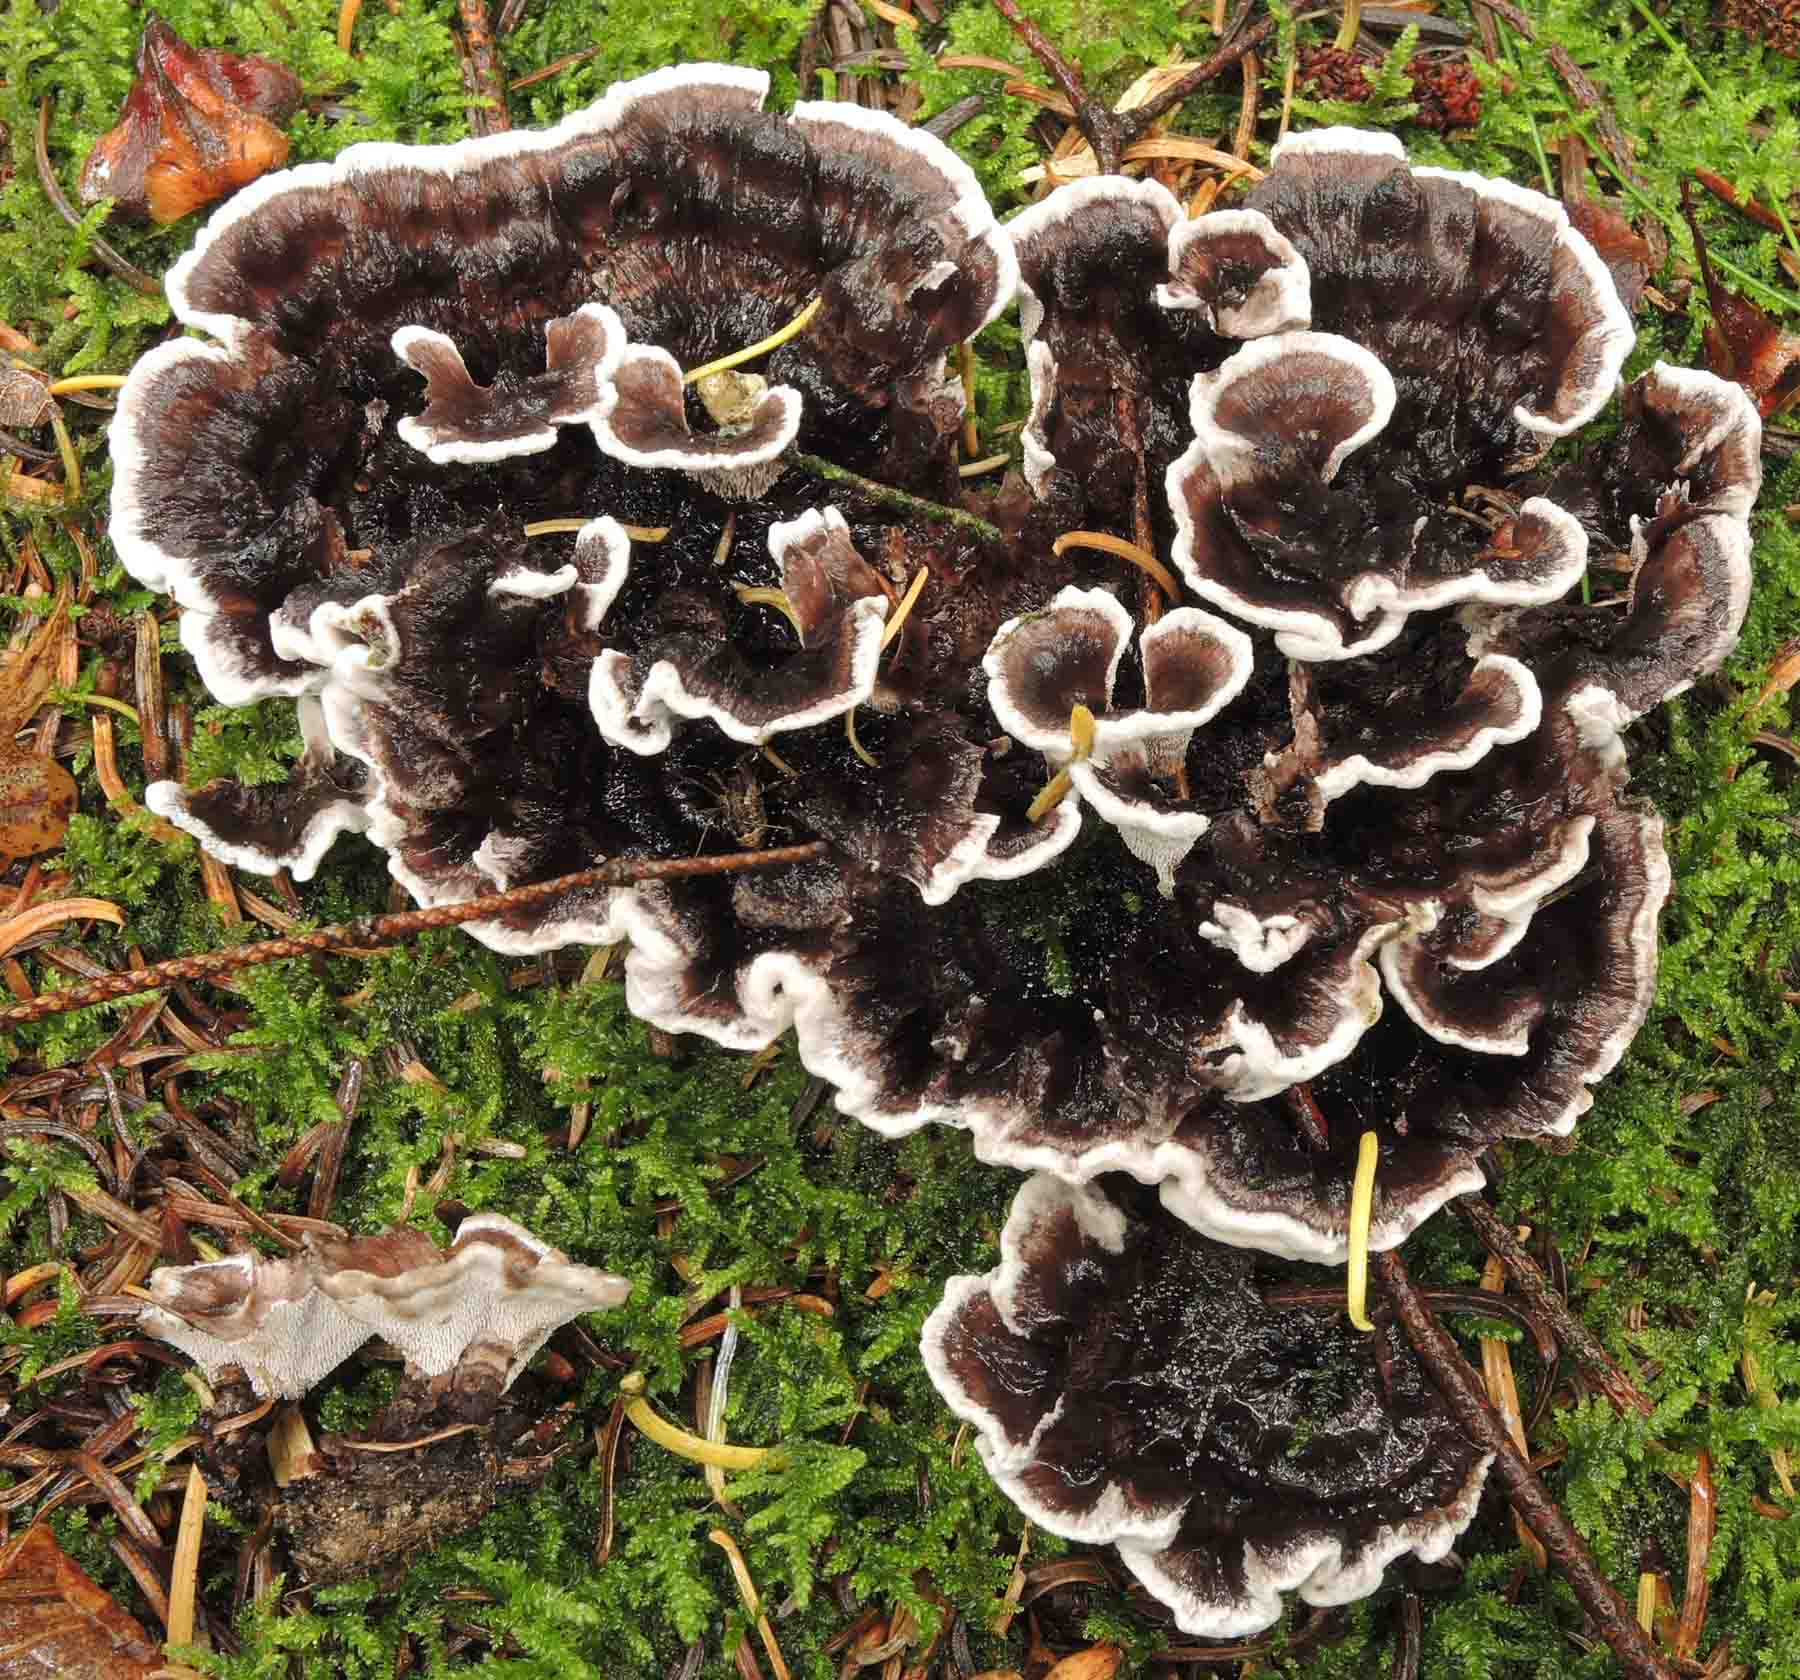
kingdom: Fungi
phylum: Basidiomycota
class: Agaricomycetes
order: Thelephorales
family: Thelephoraceae
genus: Phellodon
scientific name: Phellodon tomentosus
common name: vellugtende duftpigsvamp
